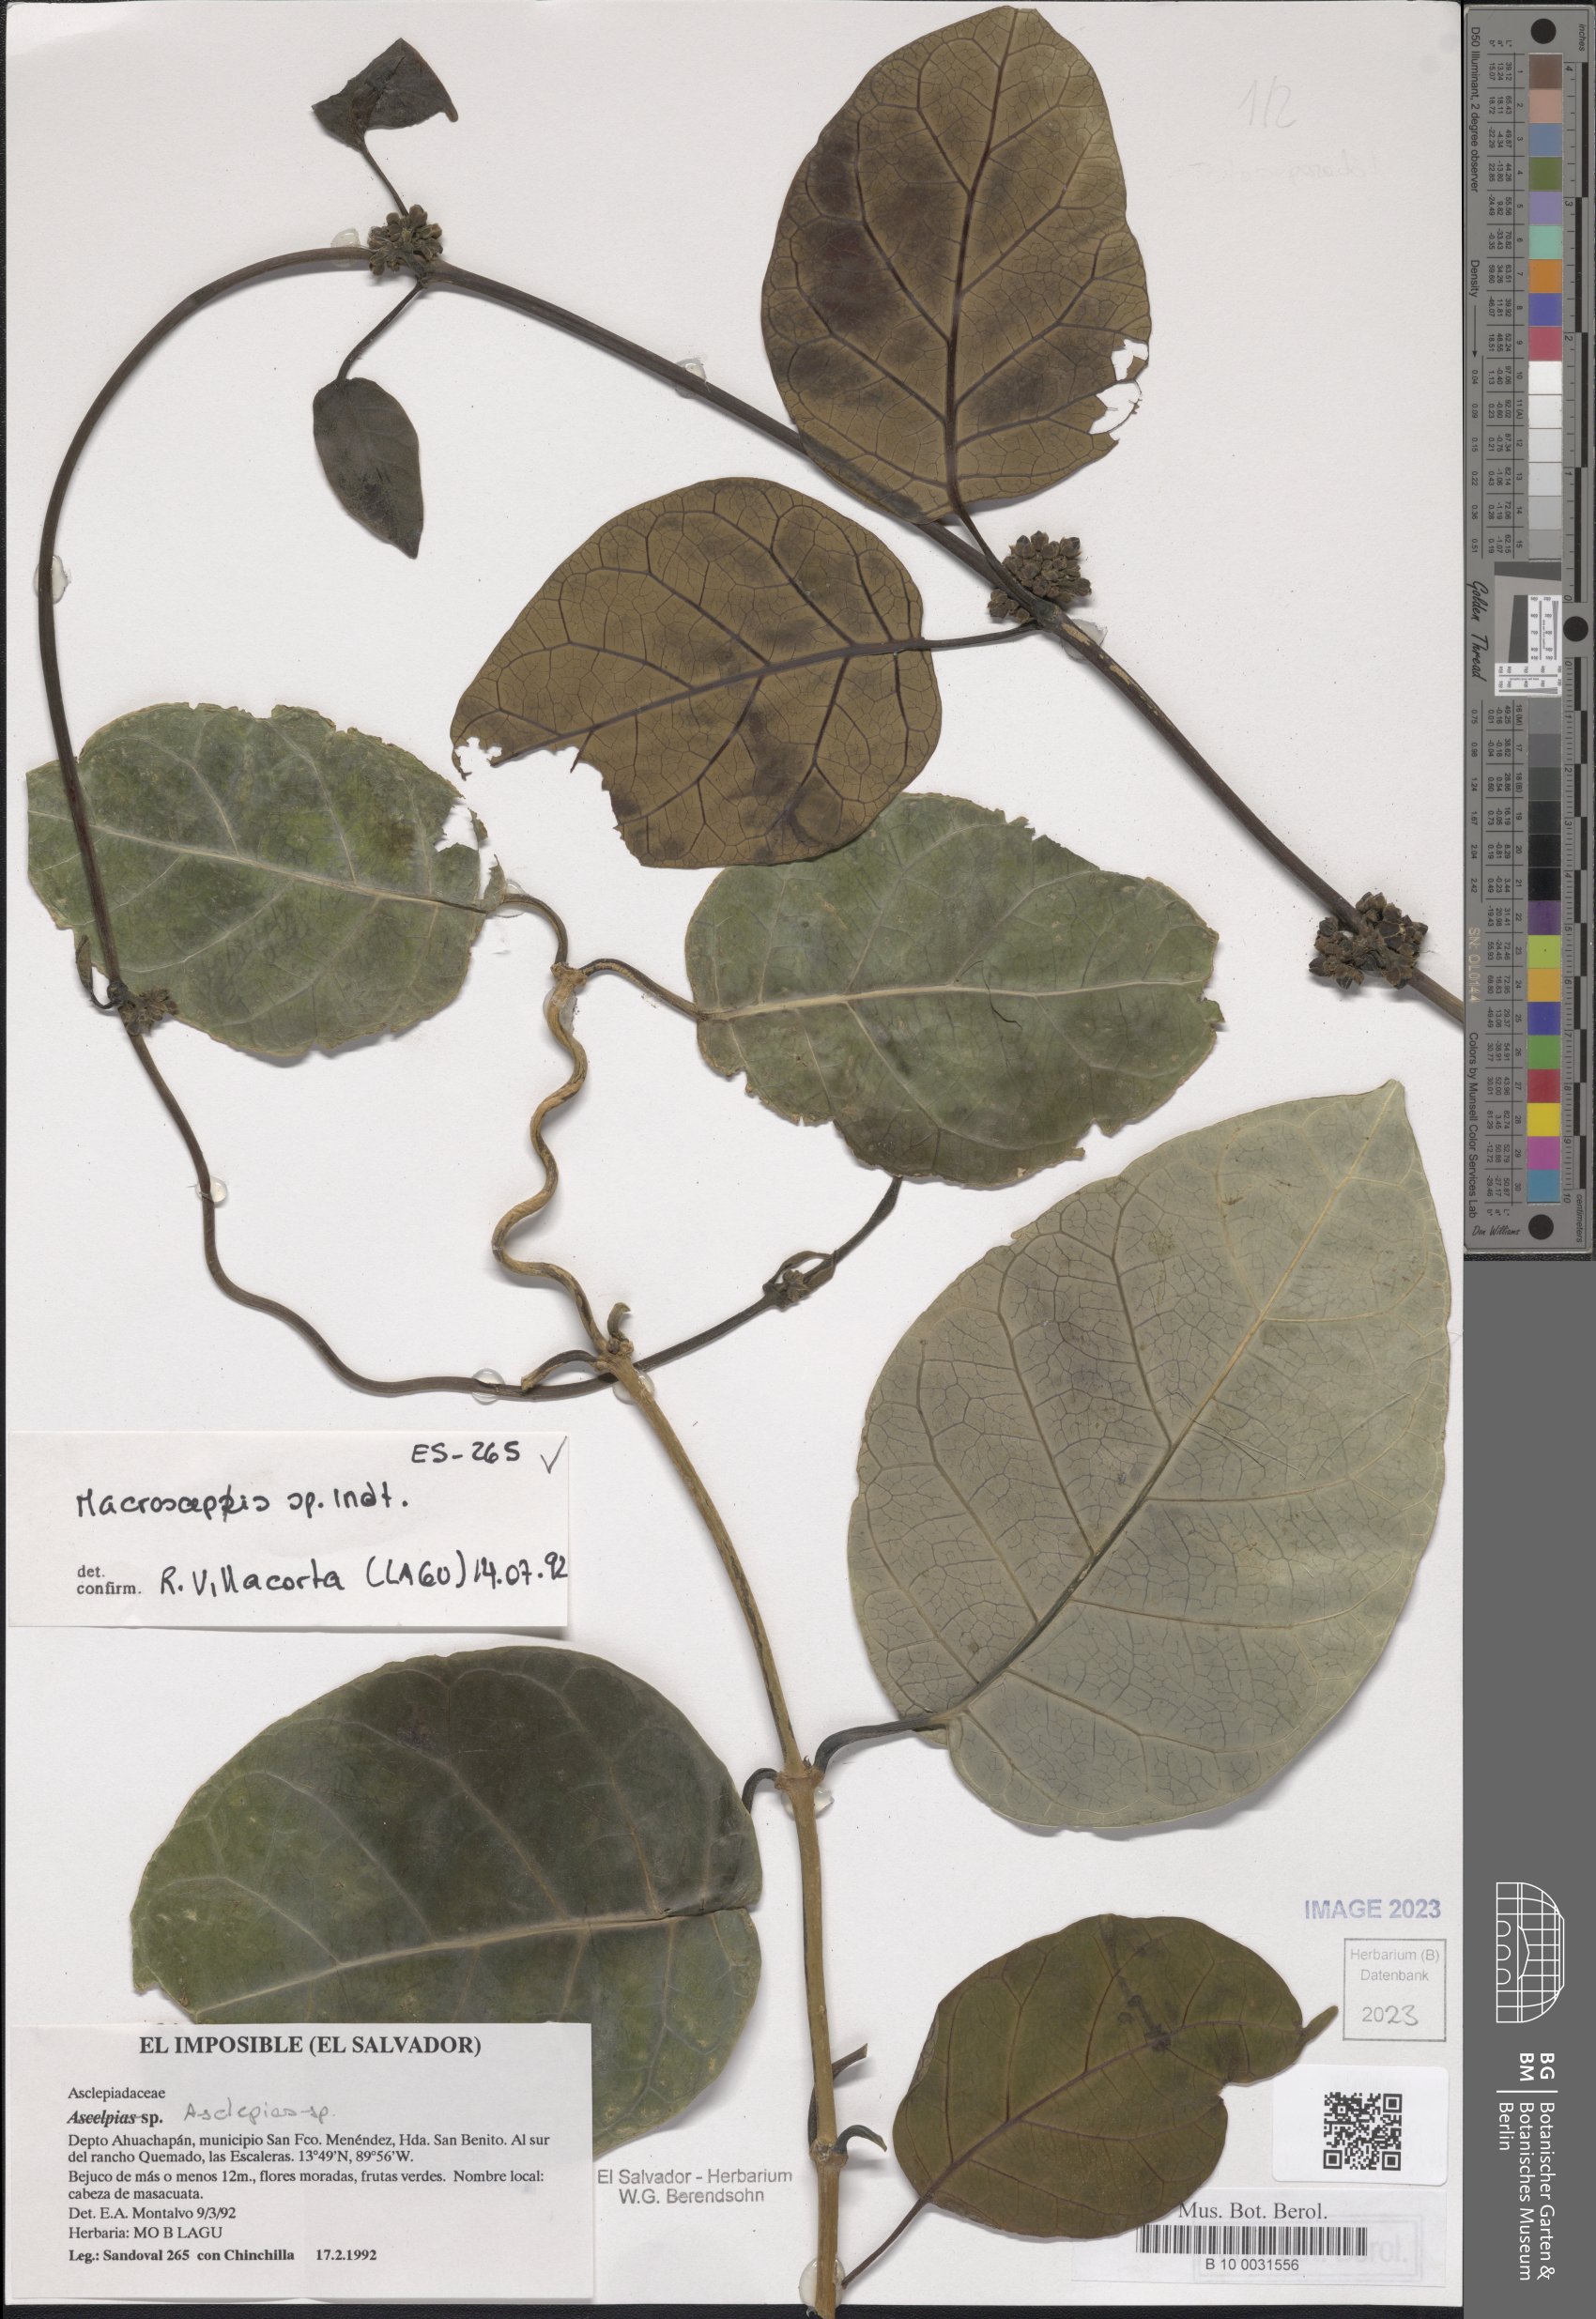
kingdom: Plantae
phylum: Tracheophyta
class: Magnoliopsida
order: Gentianales
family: Apocynaceae
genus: Macroscepis
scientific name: Macroscepis
